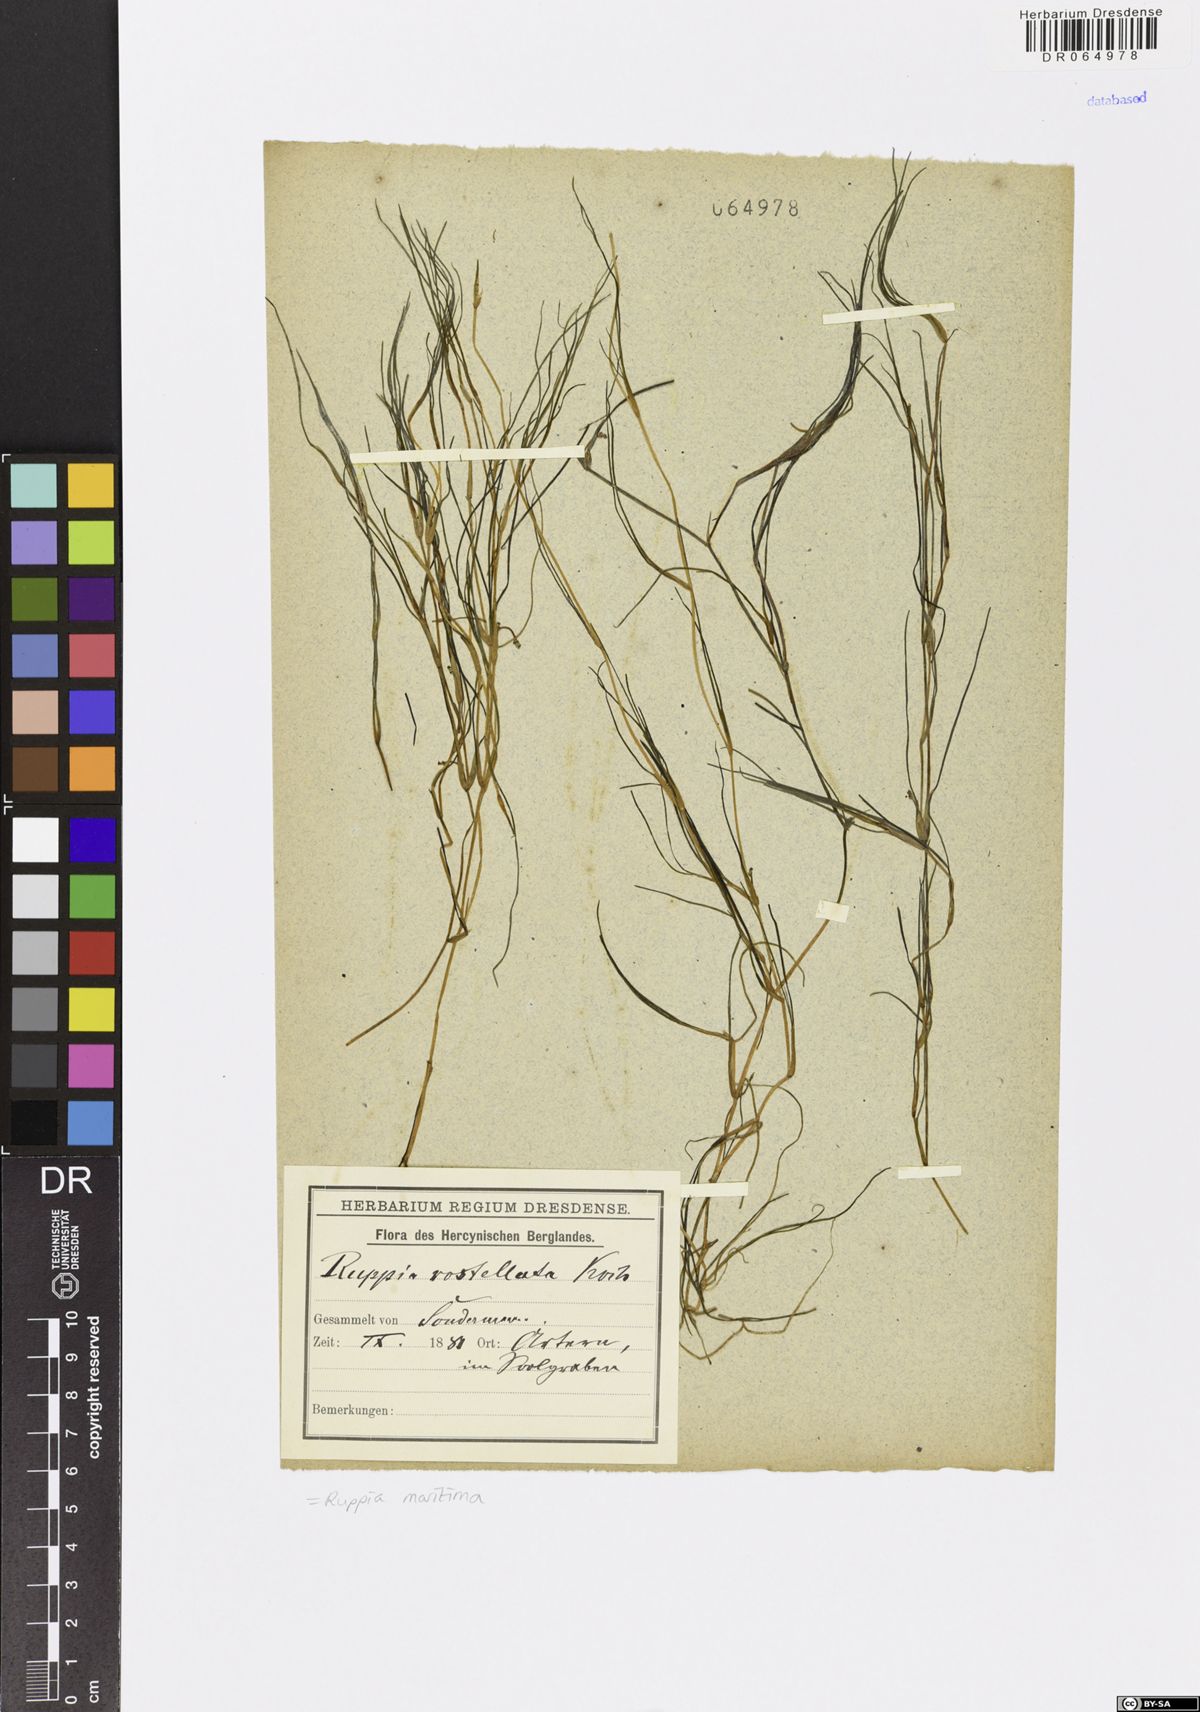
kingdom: Plantae
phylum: Tracheophyta
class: Liliopsida
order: Alismatales
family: Ruppiaceae
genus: Ruppia
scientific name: Ruppia maritima
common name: Beaked tasselweed
